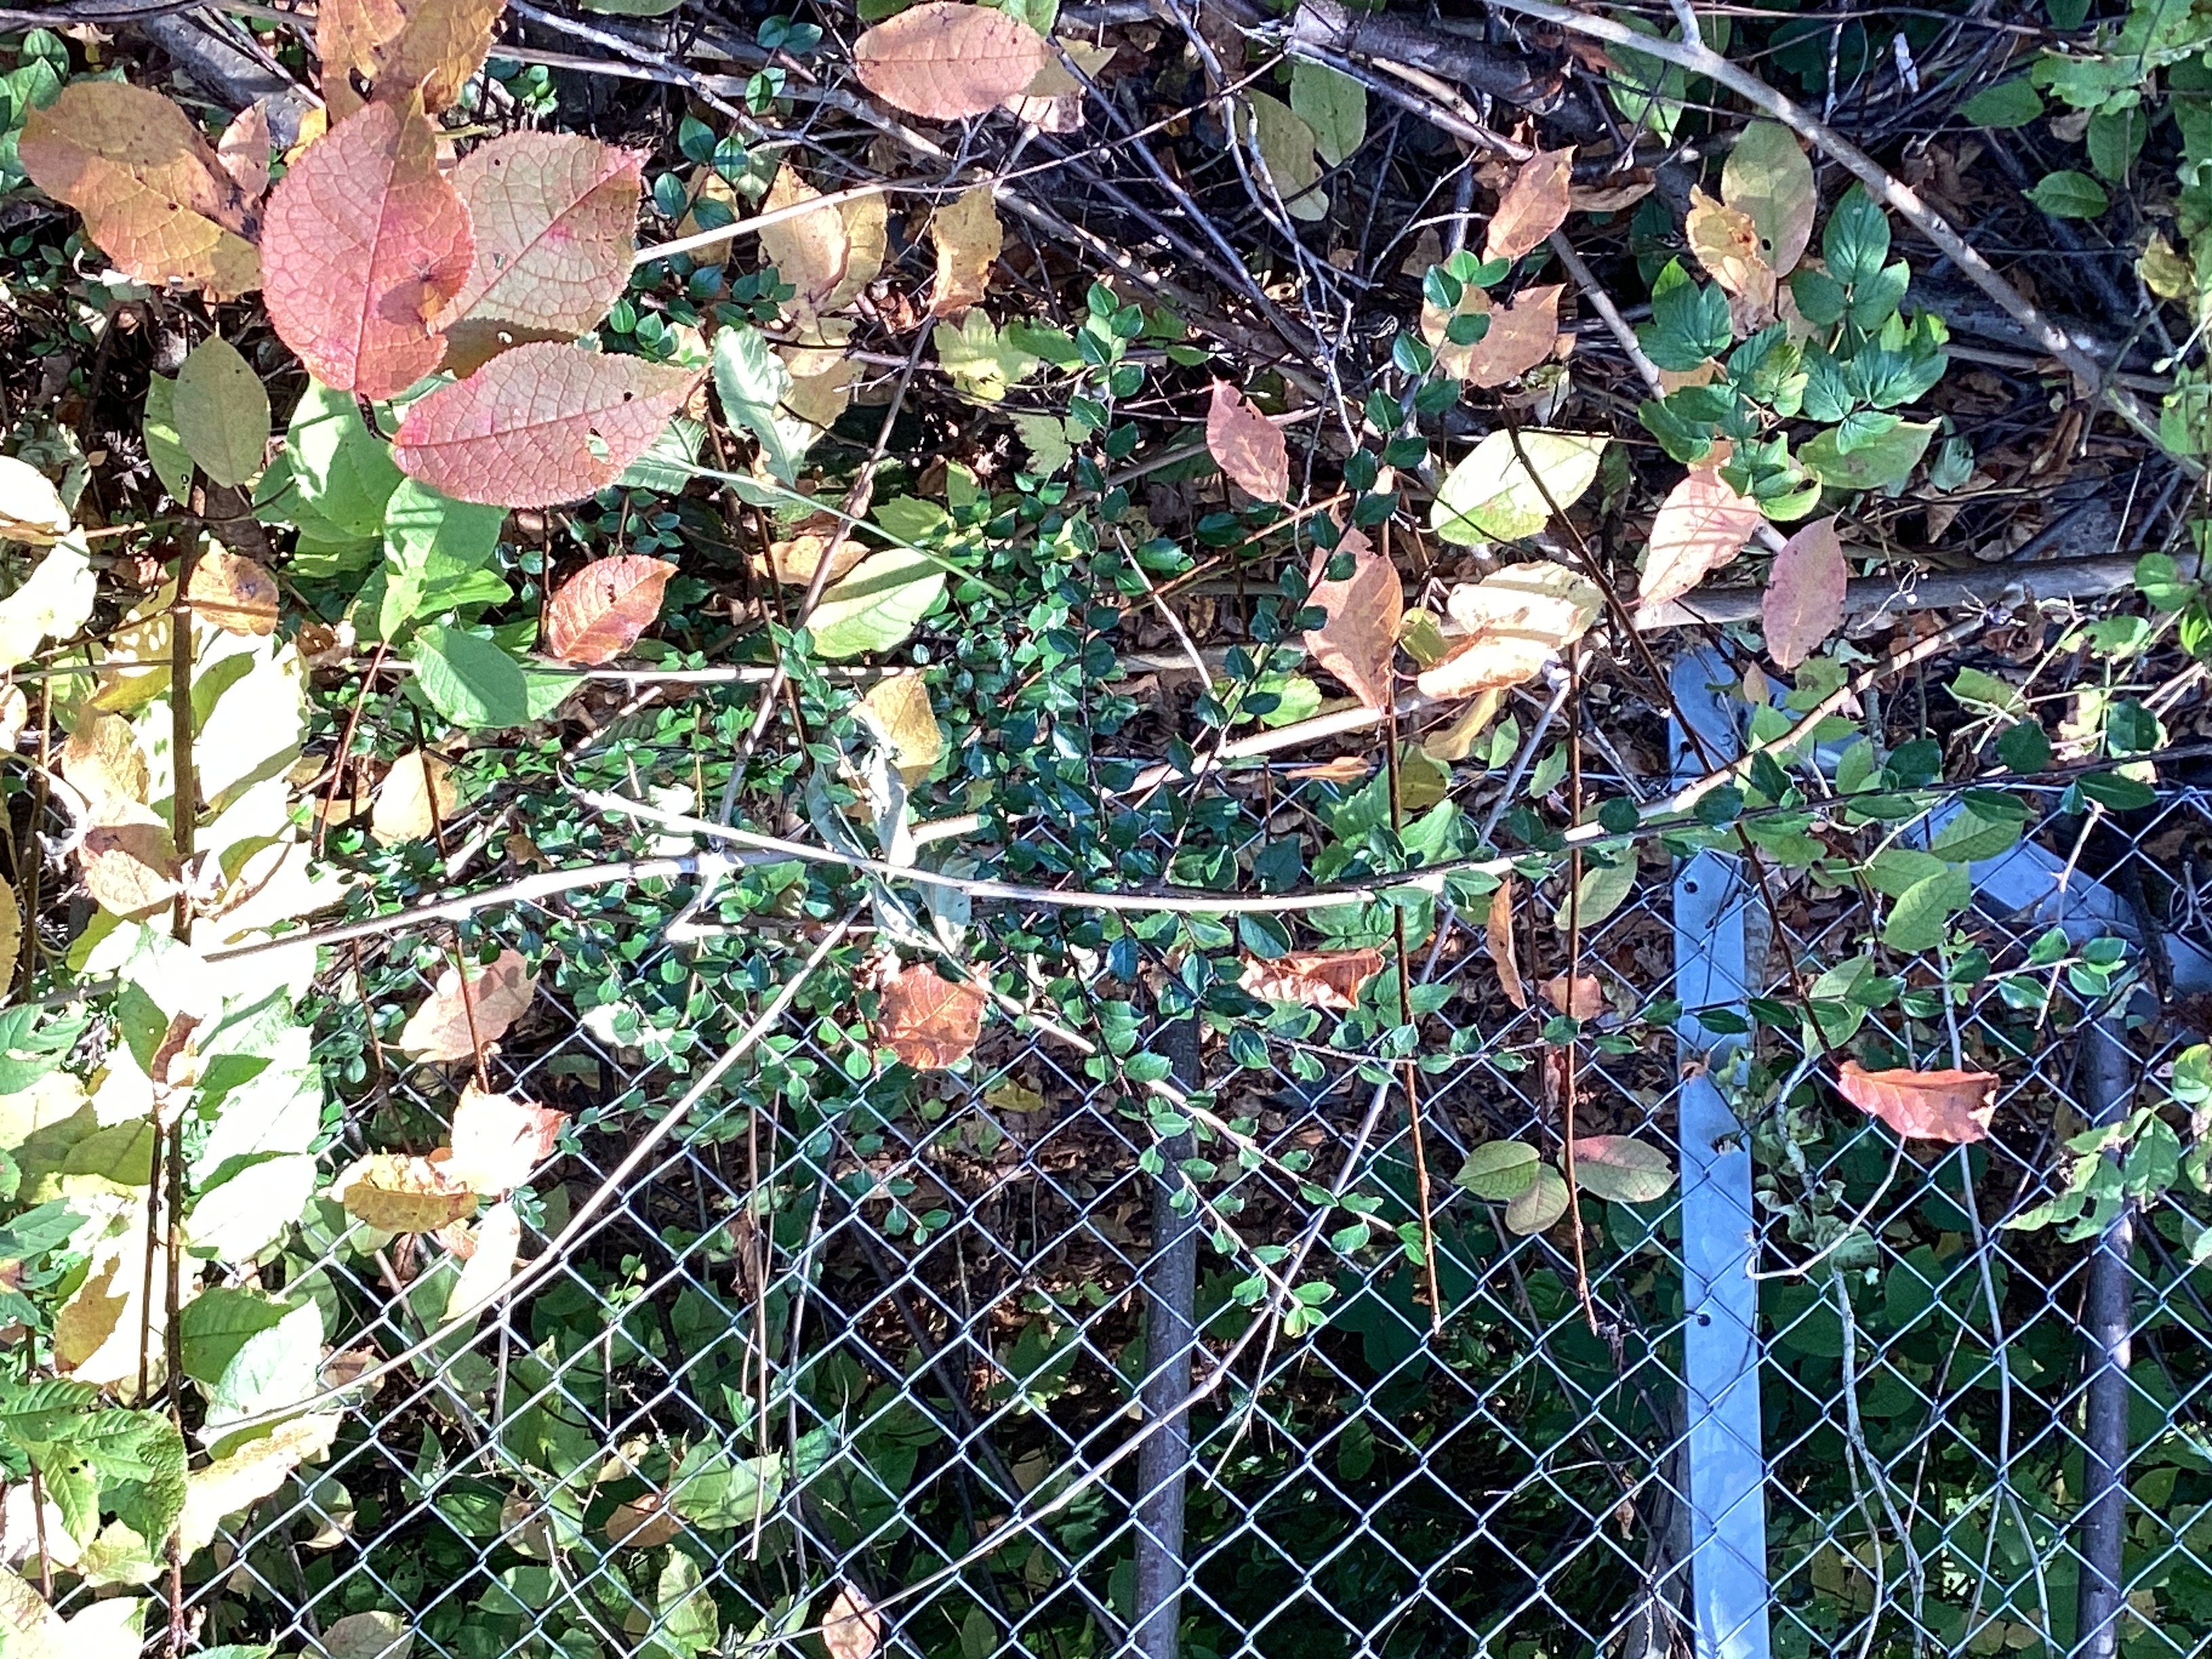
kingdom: Plantae
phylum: Tracheophyta
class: Magnoliopsida
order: Rosales
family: Rosaceae
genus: Cotoneaster
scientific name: Cotoneaster divaricatus
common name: sprikemispel
